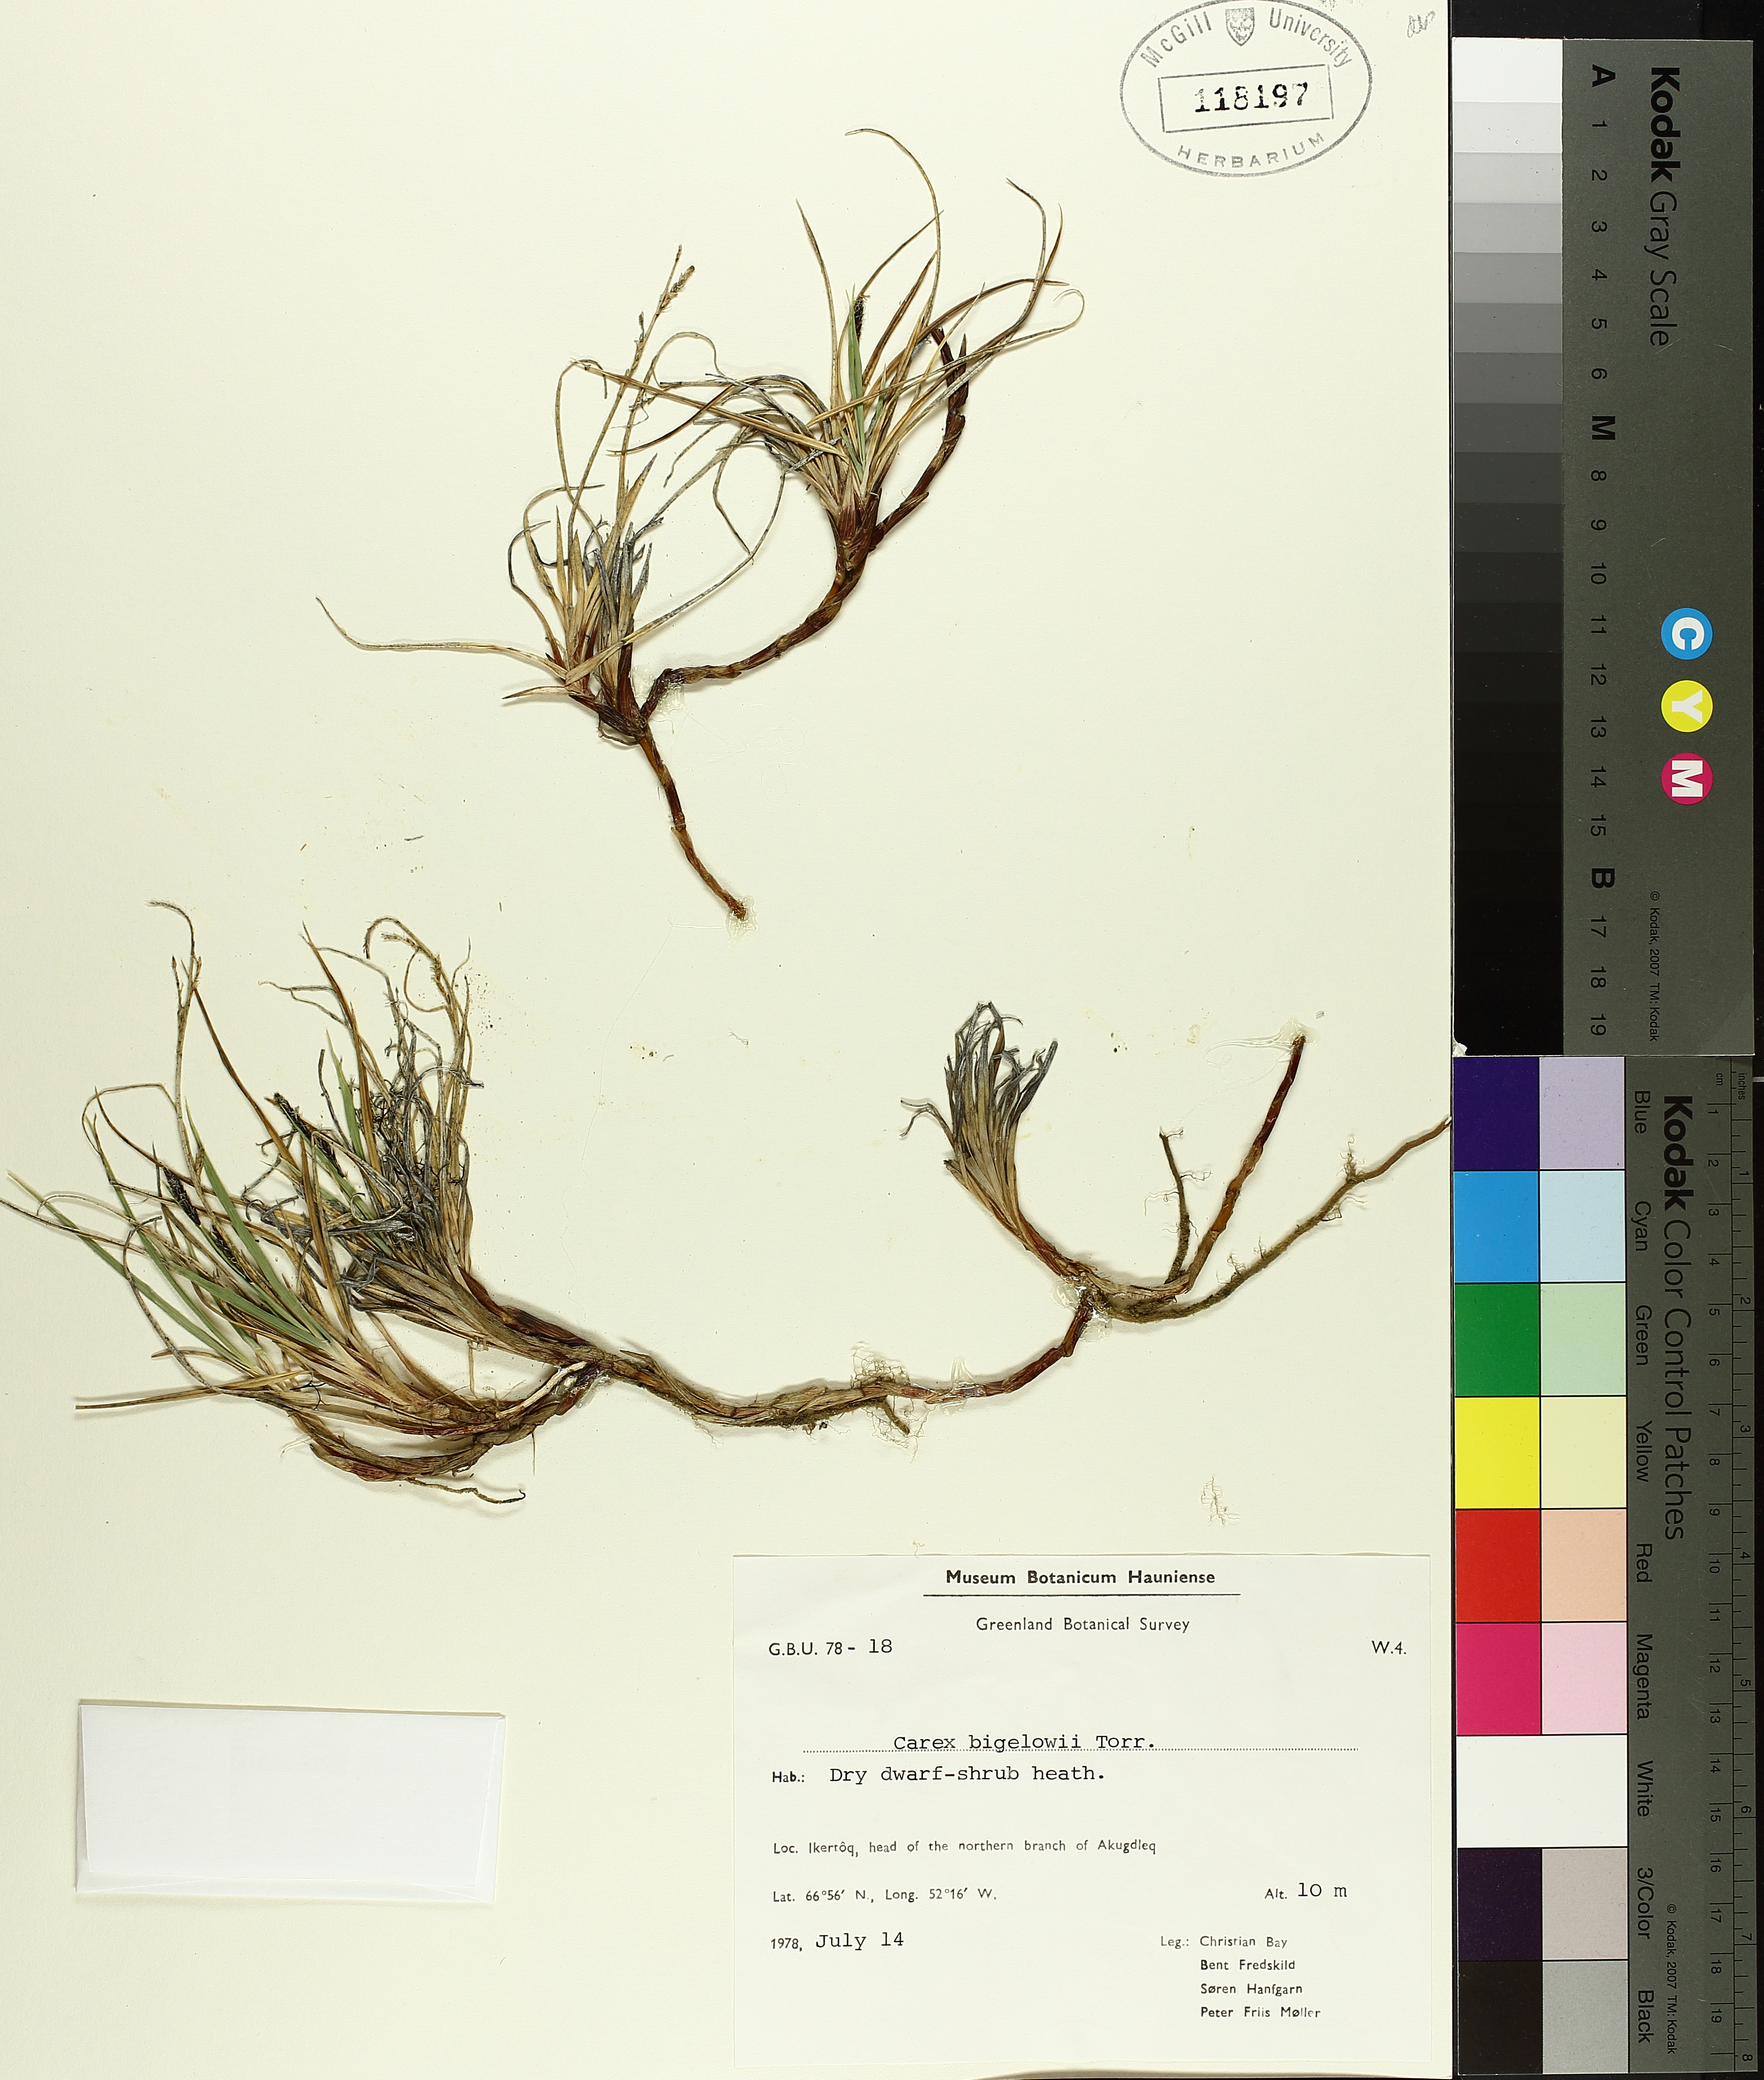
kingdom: Plantae
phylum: Tracheophyta
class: Liliopsida
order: Poales
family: Cyperaceae
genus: Carex
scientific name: Carex bigelowii
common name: Stiff sedge
